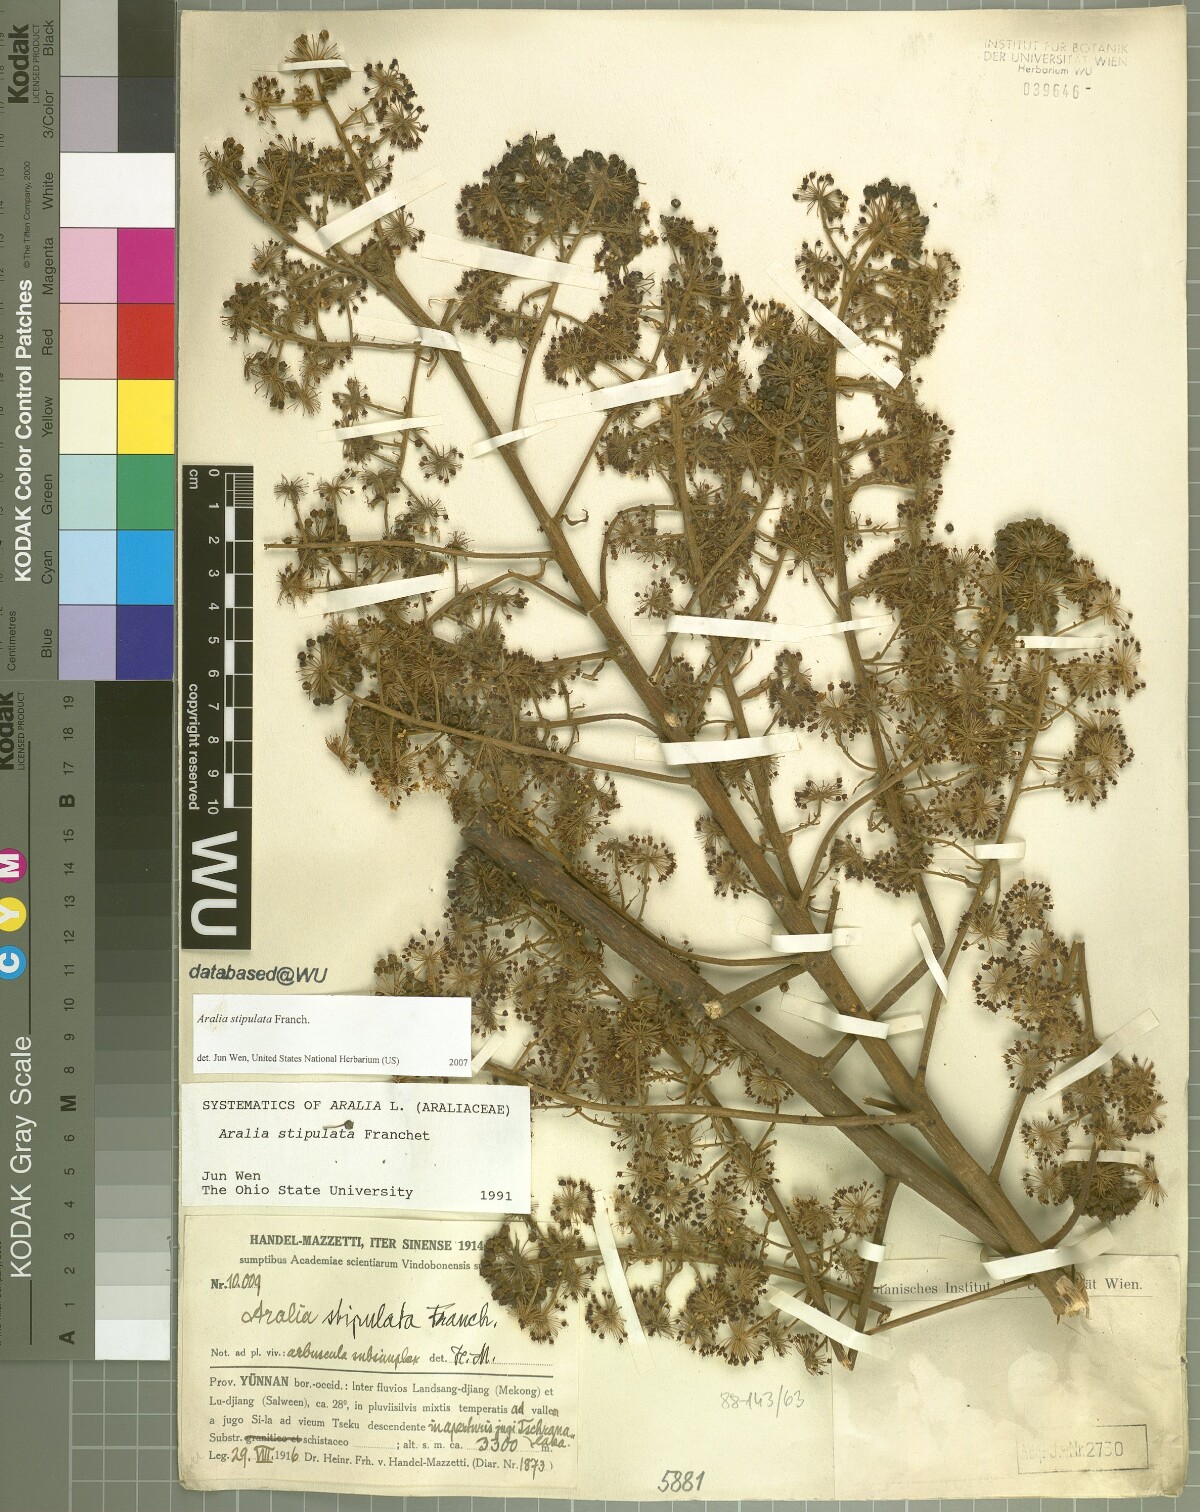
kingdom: Plantae
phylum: Tracheophyta
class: Magnoliopsida
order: Apiales
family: Araliaceae
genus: Aralia
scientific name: Aralia stipulata
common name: Chinese angelica-tree
